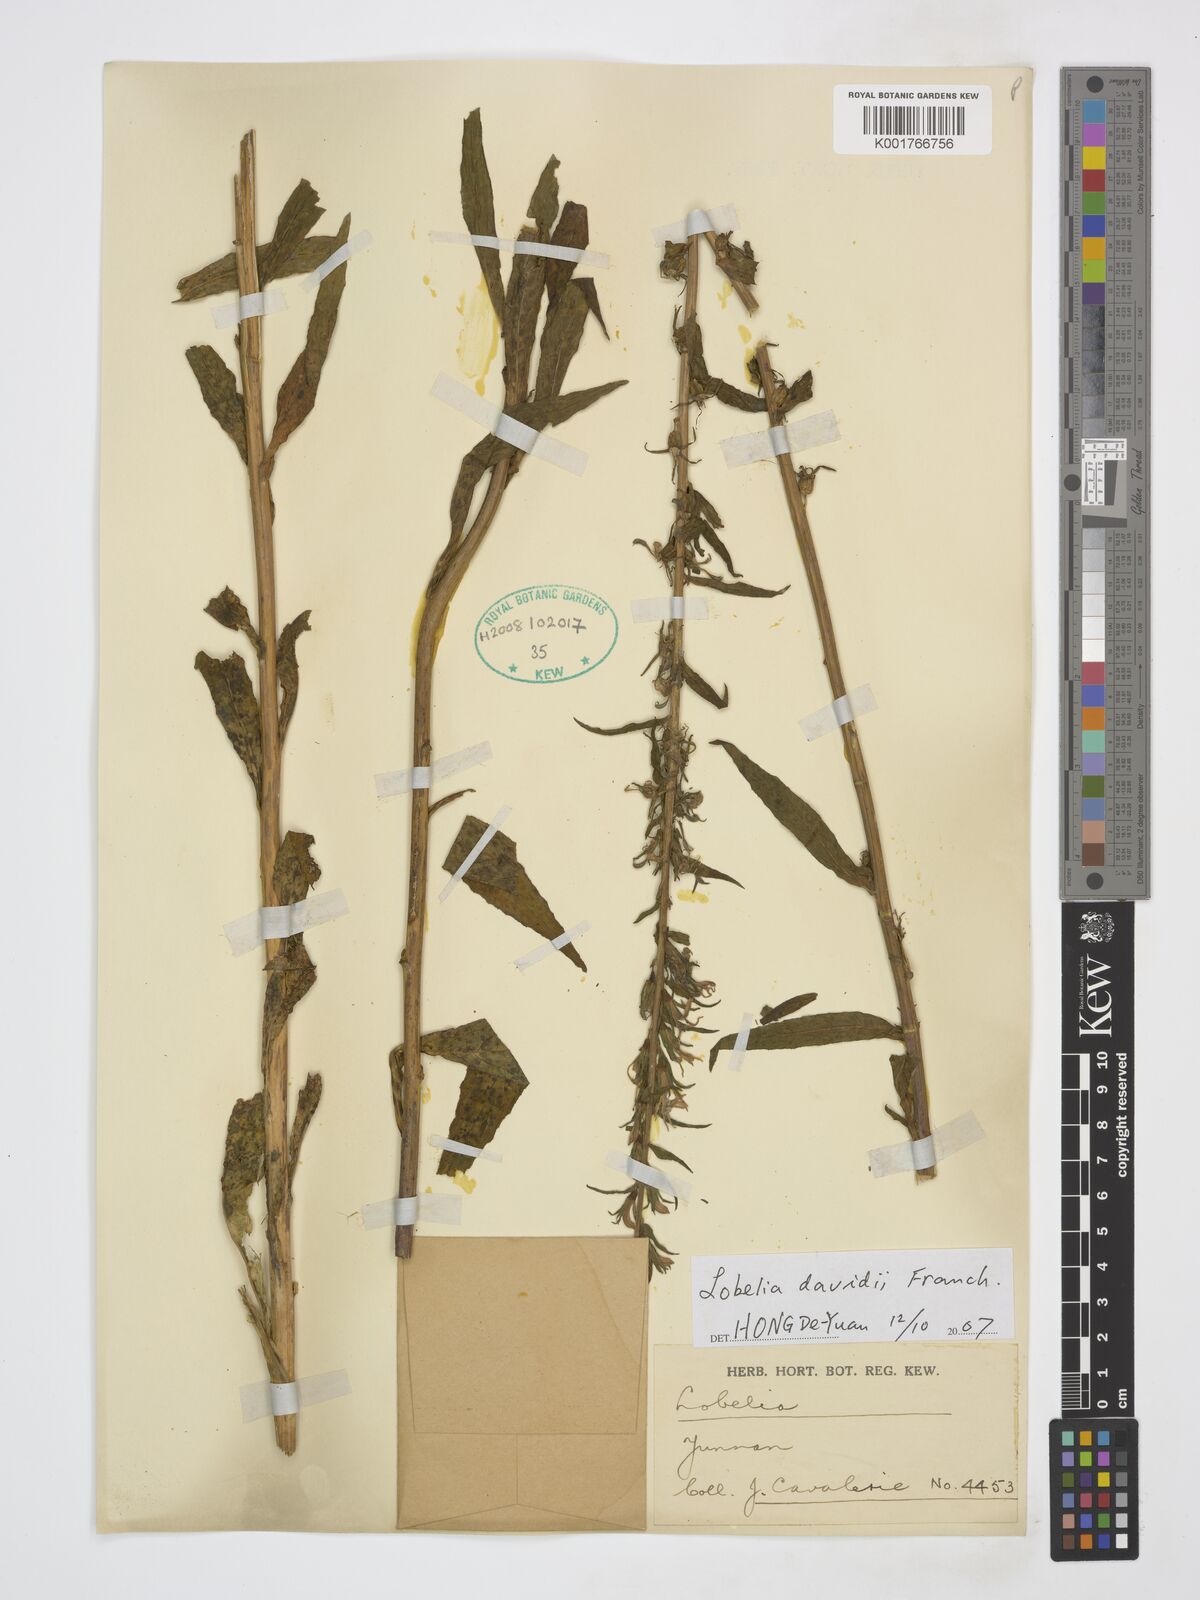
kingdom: Plantae
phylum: Tracheophyta
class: Magnoliopsida
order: Asterales
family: Campanulaceae
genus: Lobelia
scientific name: Lobelia davidii
